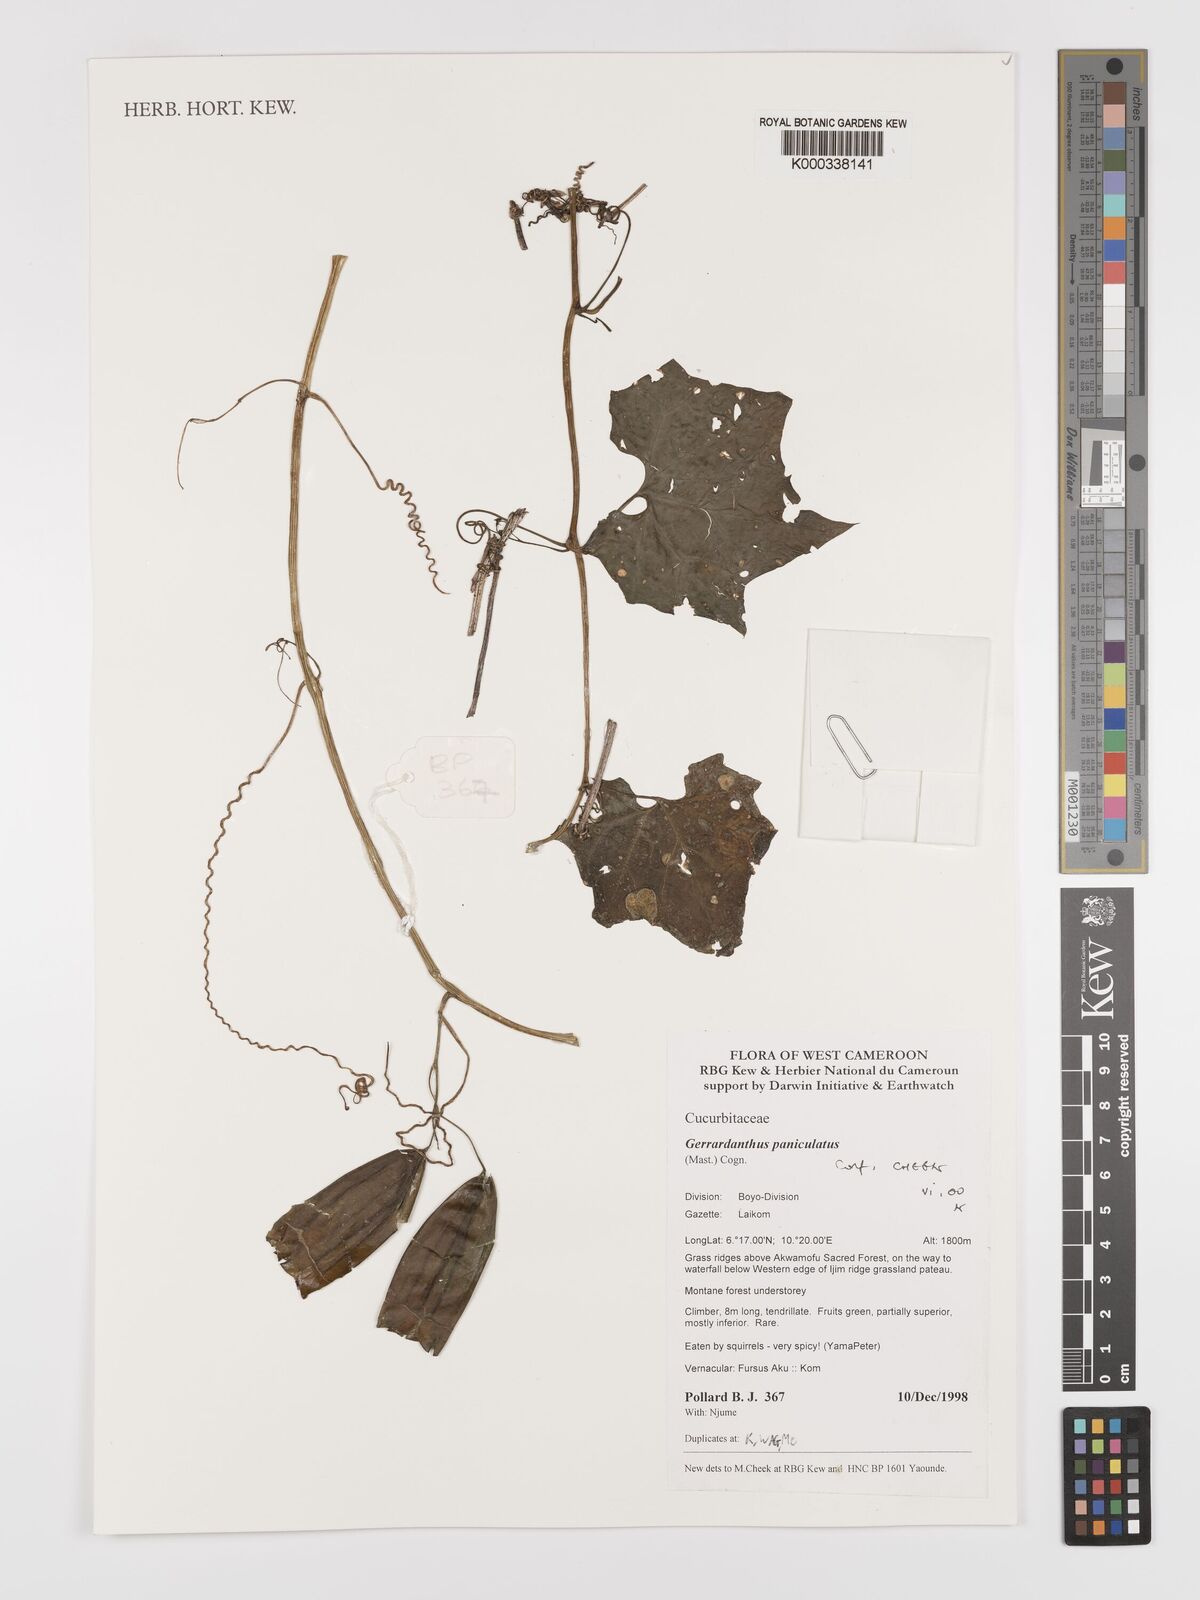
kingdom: Plantae
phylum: Tracheophyta
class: Magnoliopsida
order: Cucurbitales
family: Cucurbitaceae
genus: Gerrardanthus
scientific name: Gerrardanthus paniculatus
